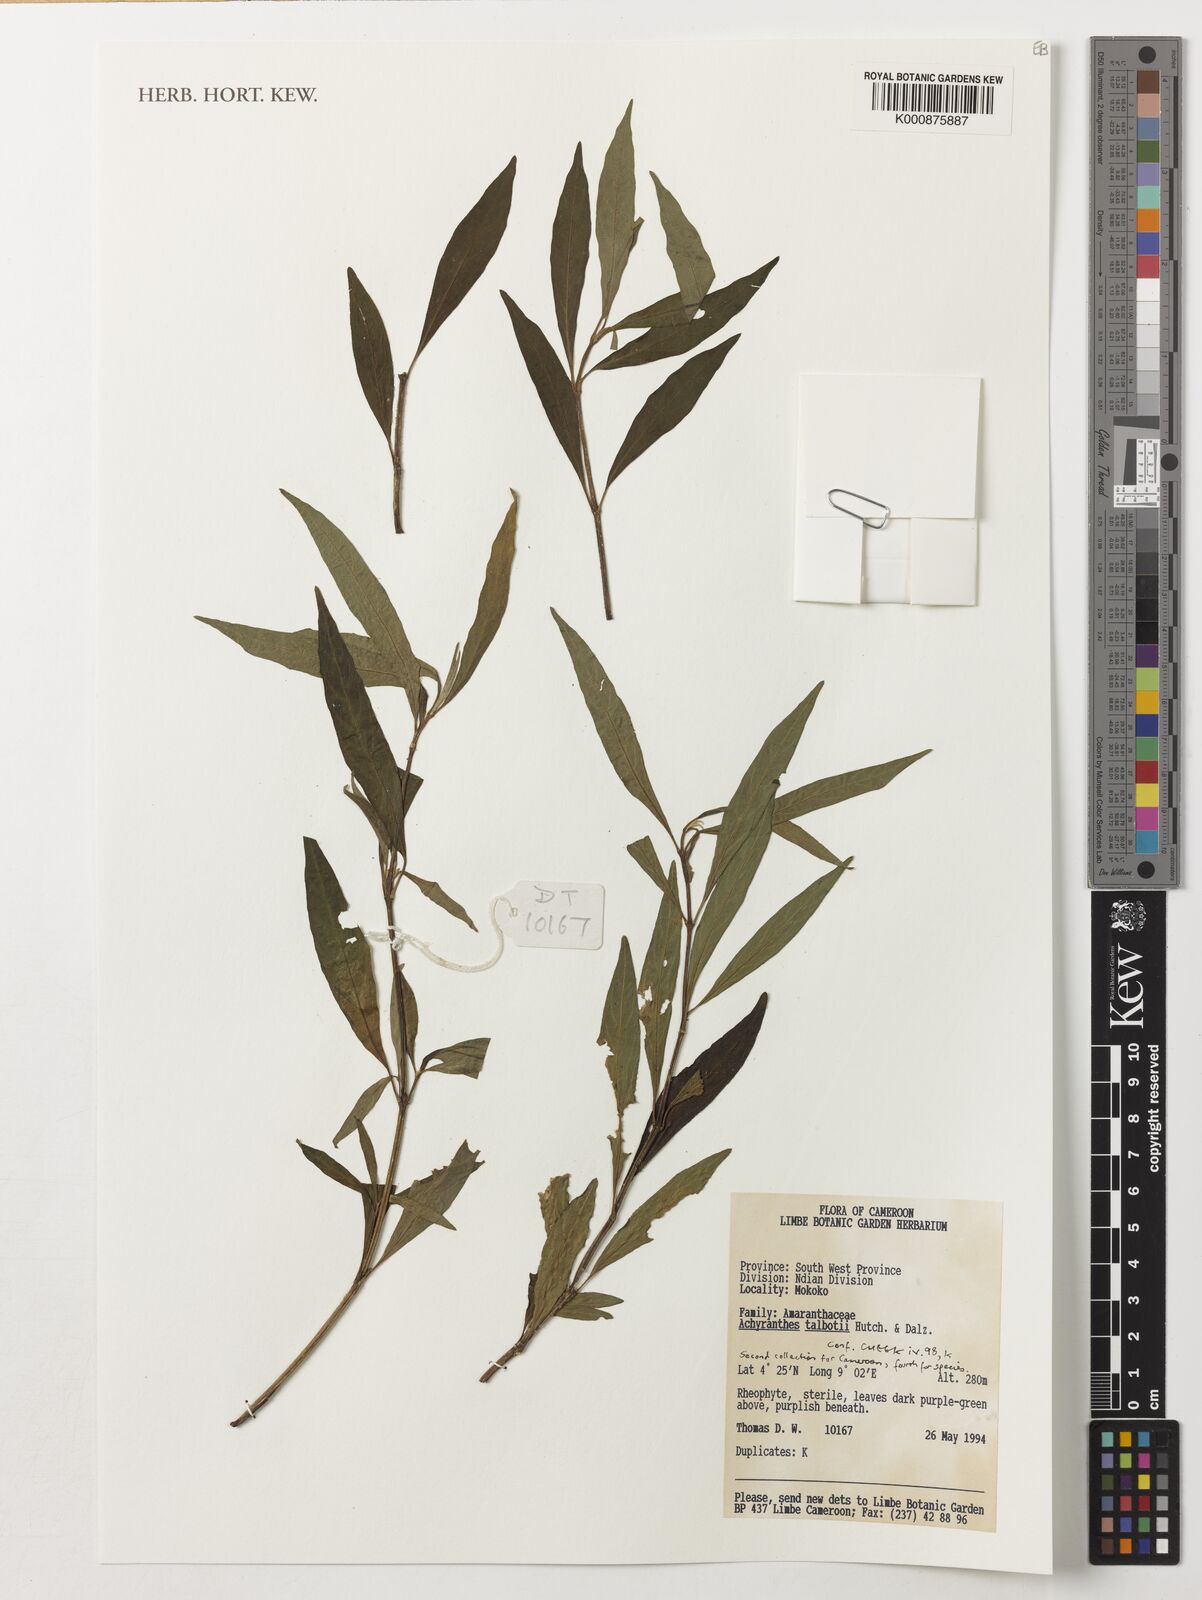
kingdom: Plantae
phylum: Tracheophyta
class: Magnoliopsida
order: Caryophyllales
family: Amaranthaceae
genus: Achyranthes
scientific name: Achyranthes talbotii
